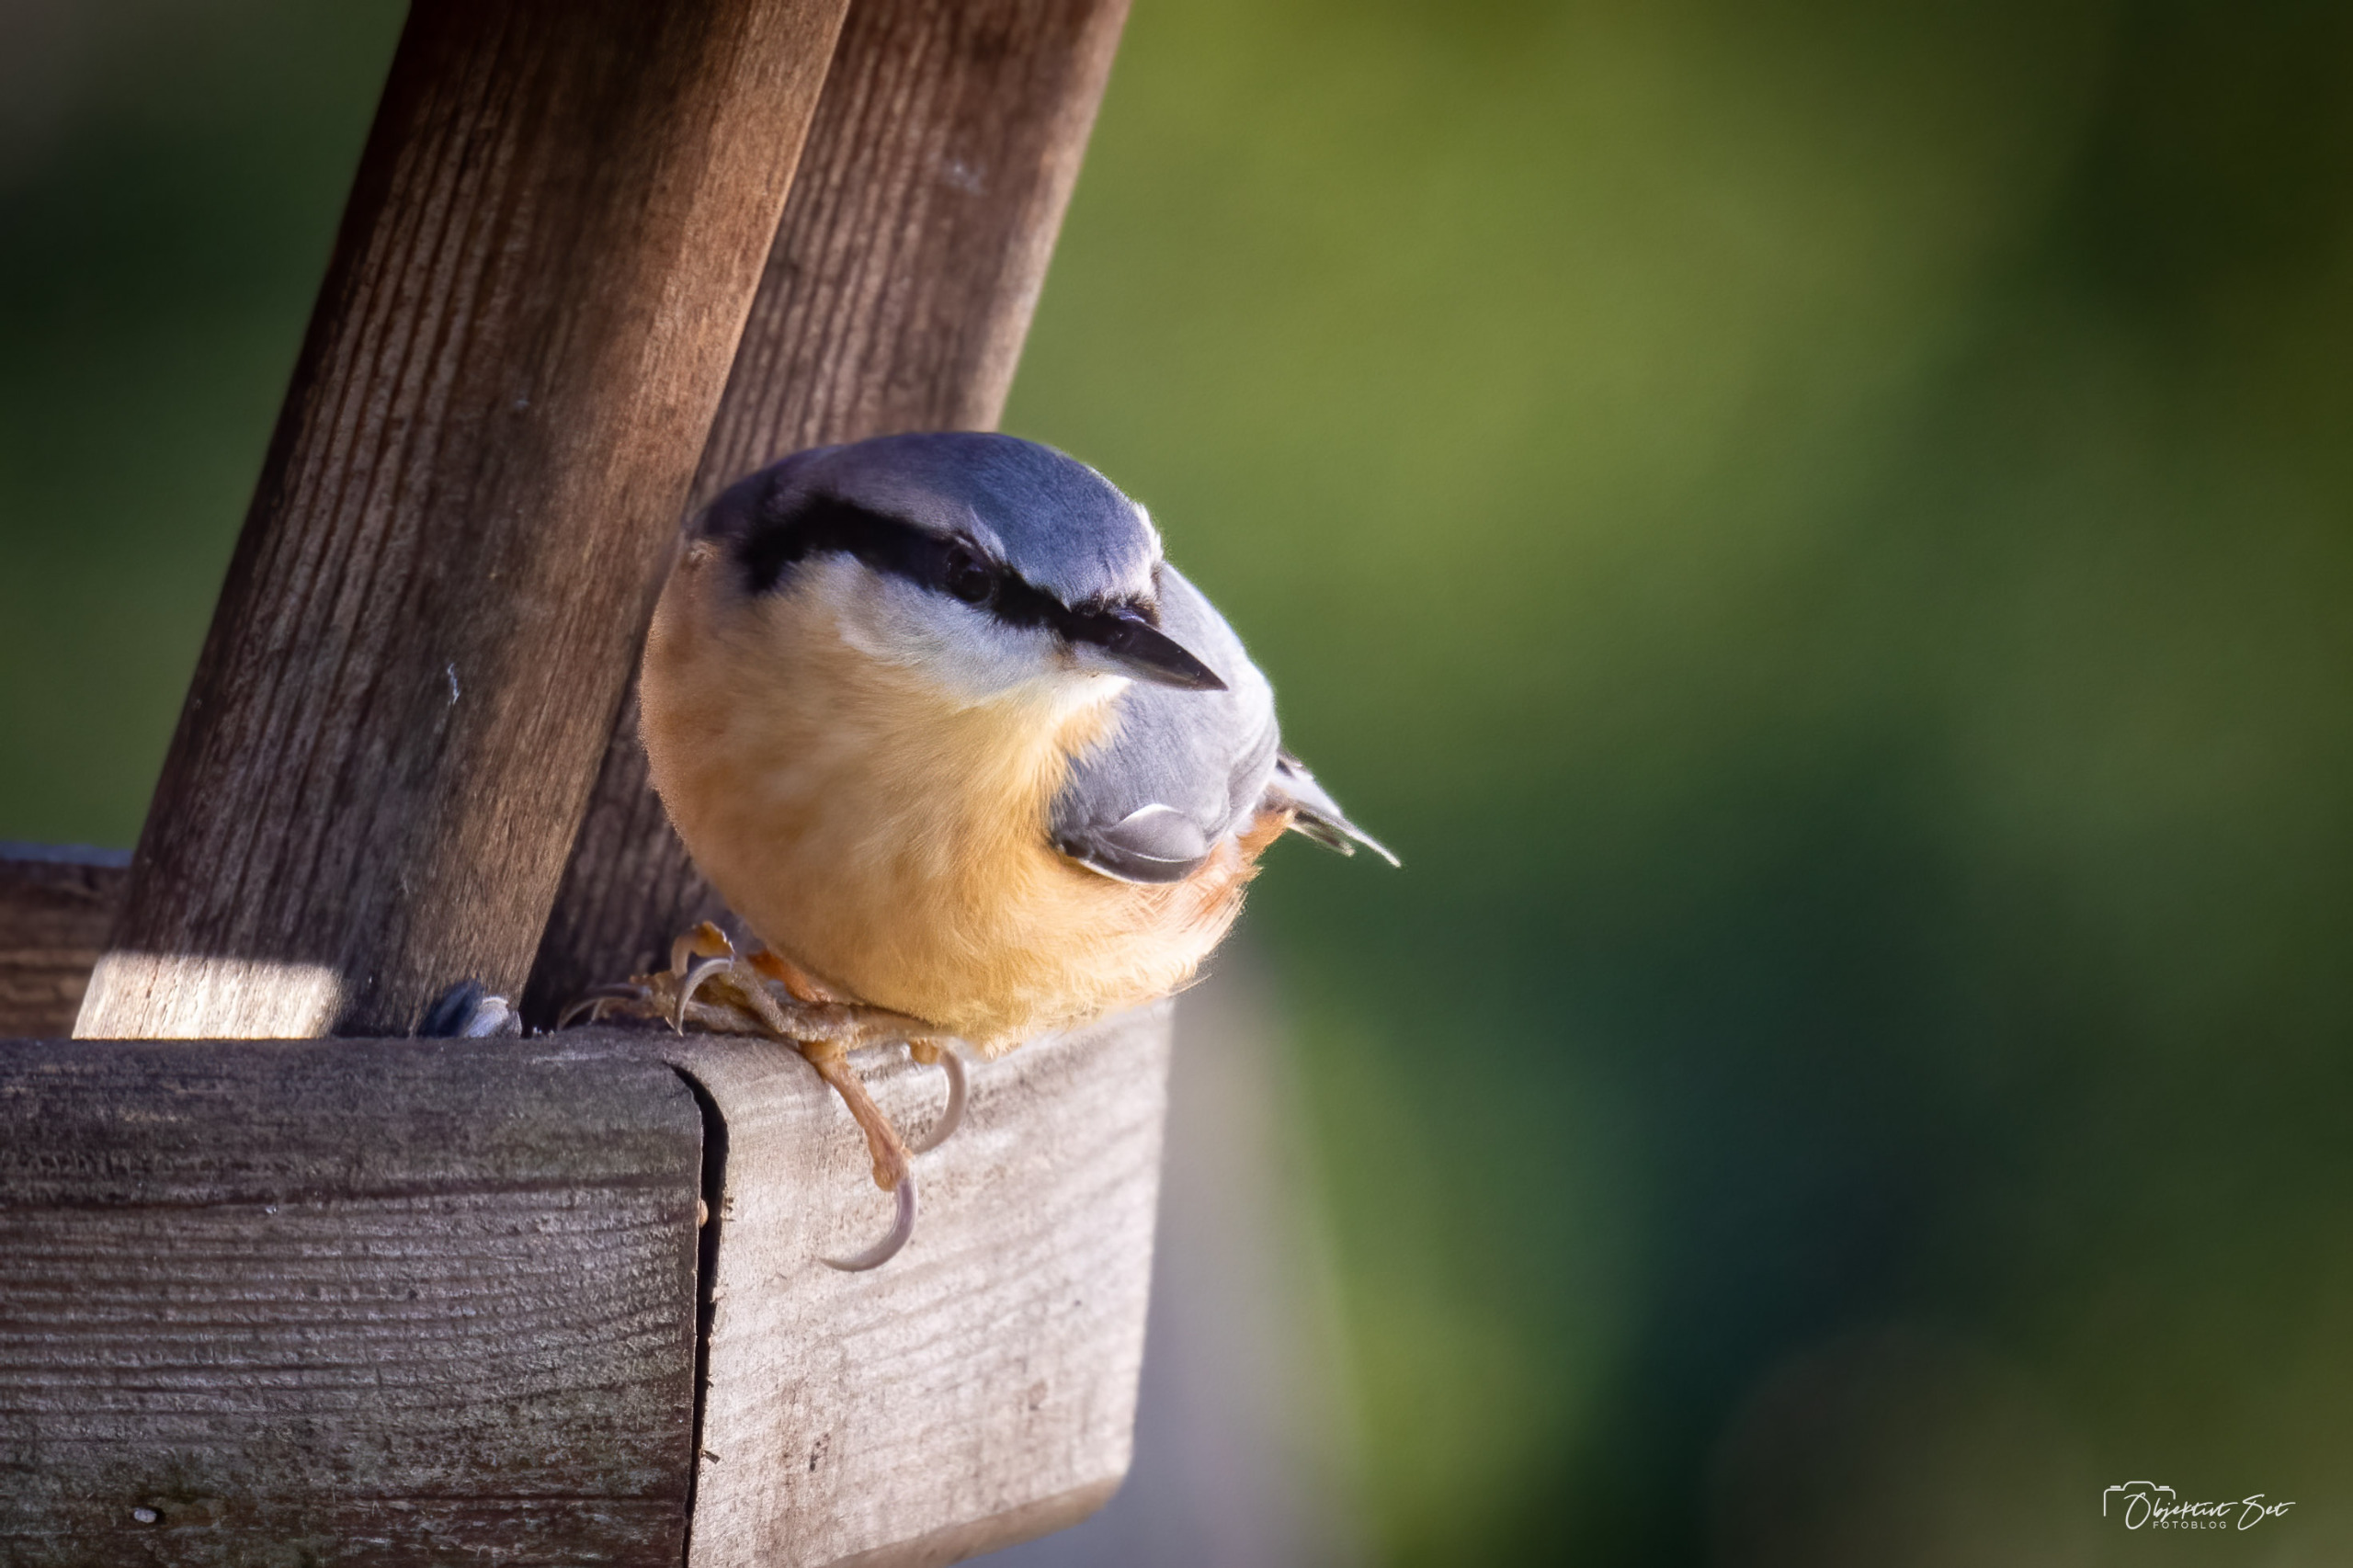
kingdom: Animalia
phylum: Chordata
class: Aves
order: Passeriformes
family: Sittidae
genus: Sitta
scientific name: Sitta europaea
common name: Spætmejse
